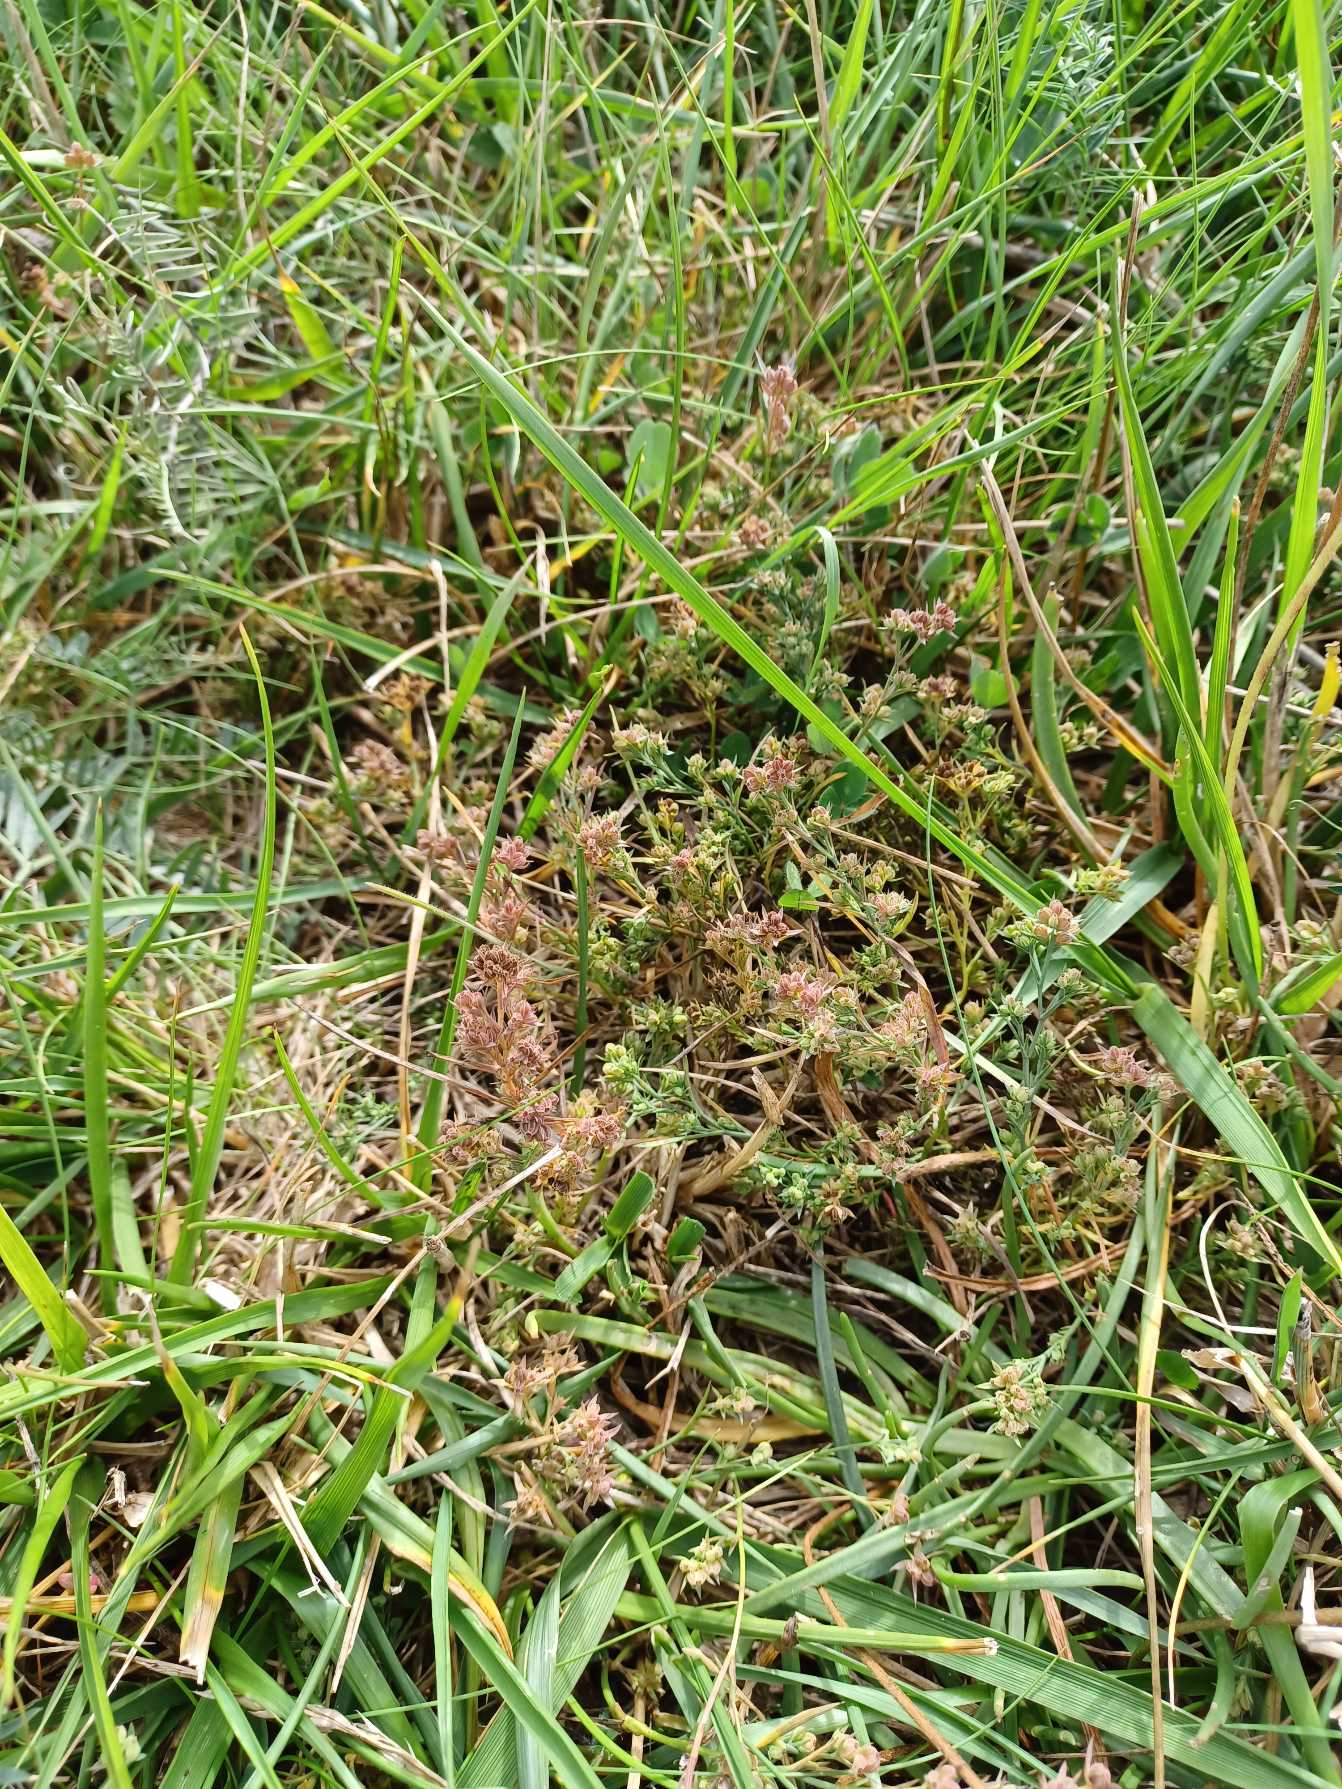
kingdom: Plantae
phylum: Tracheophyta
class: Magnoliopsida
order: Apiales
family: Apiaceae
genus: Bupleurum
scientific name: Bupleurum tenuissimum
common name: Smalbladet hareøre
